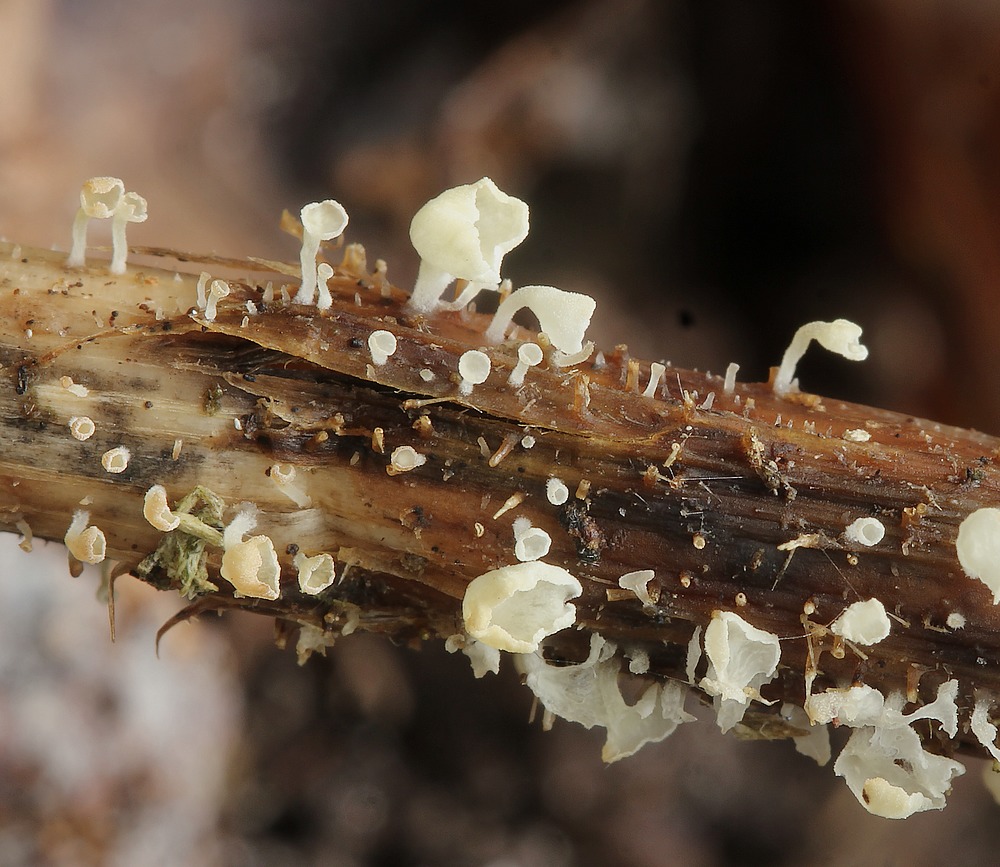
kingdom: Fungi
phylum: Basidiomycota
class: Agaricomycetes
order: Agaricales
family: Marasmiaceae
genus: Calyptella
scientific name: Calyptella capula
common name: hvidlig nældehue
